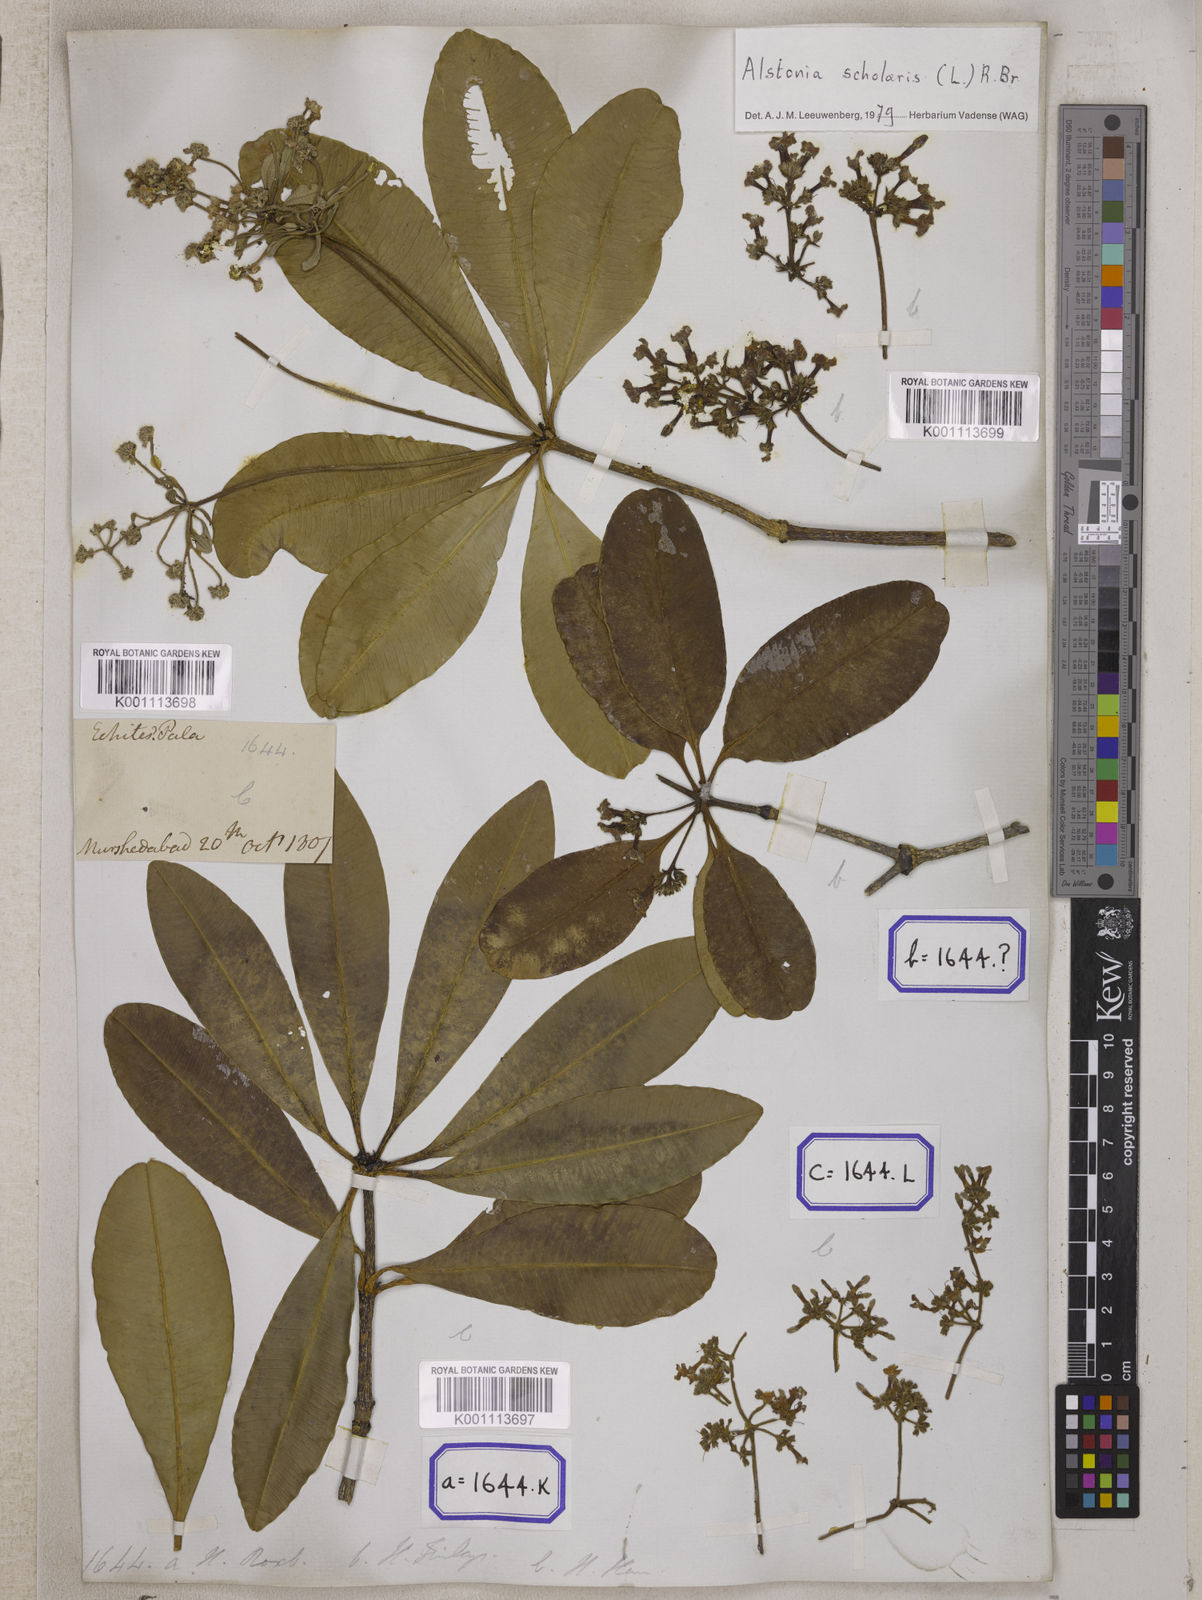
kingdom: Plantae
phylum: Tracheophyta
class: Magnoliopsida
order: Gentianales
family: Apocynaceae
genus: Alstonia
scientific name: Alstonia scholaris
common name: White cheesewood
